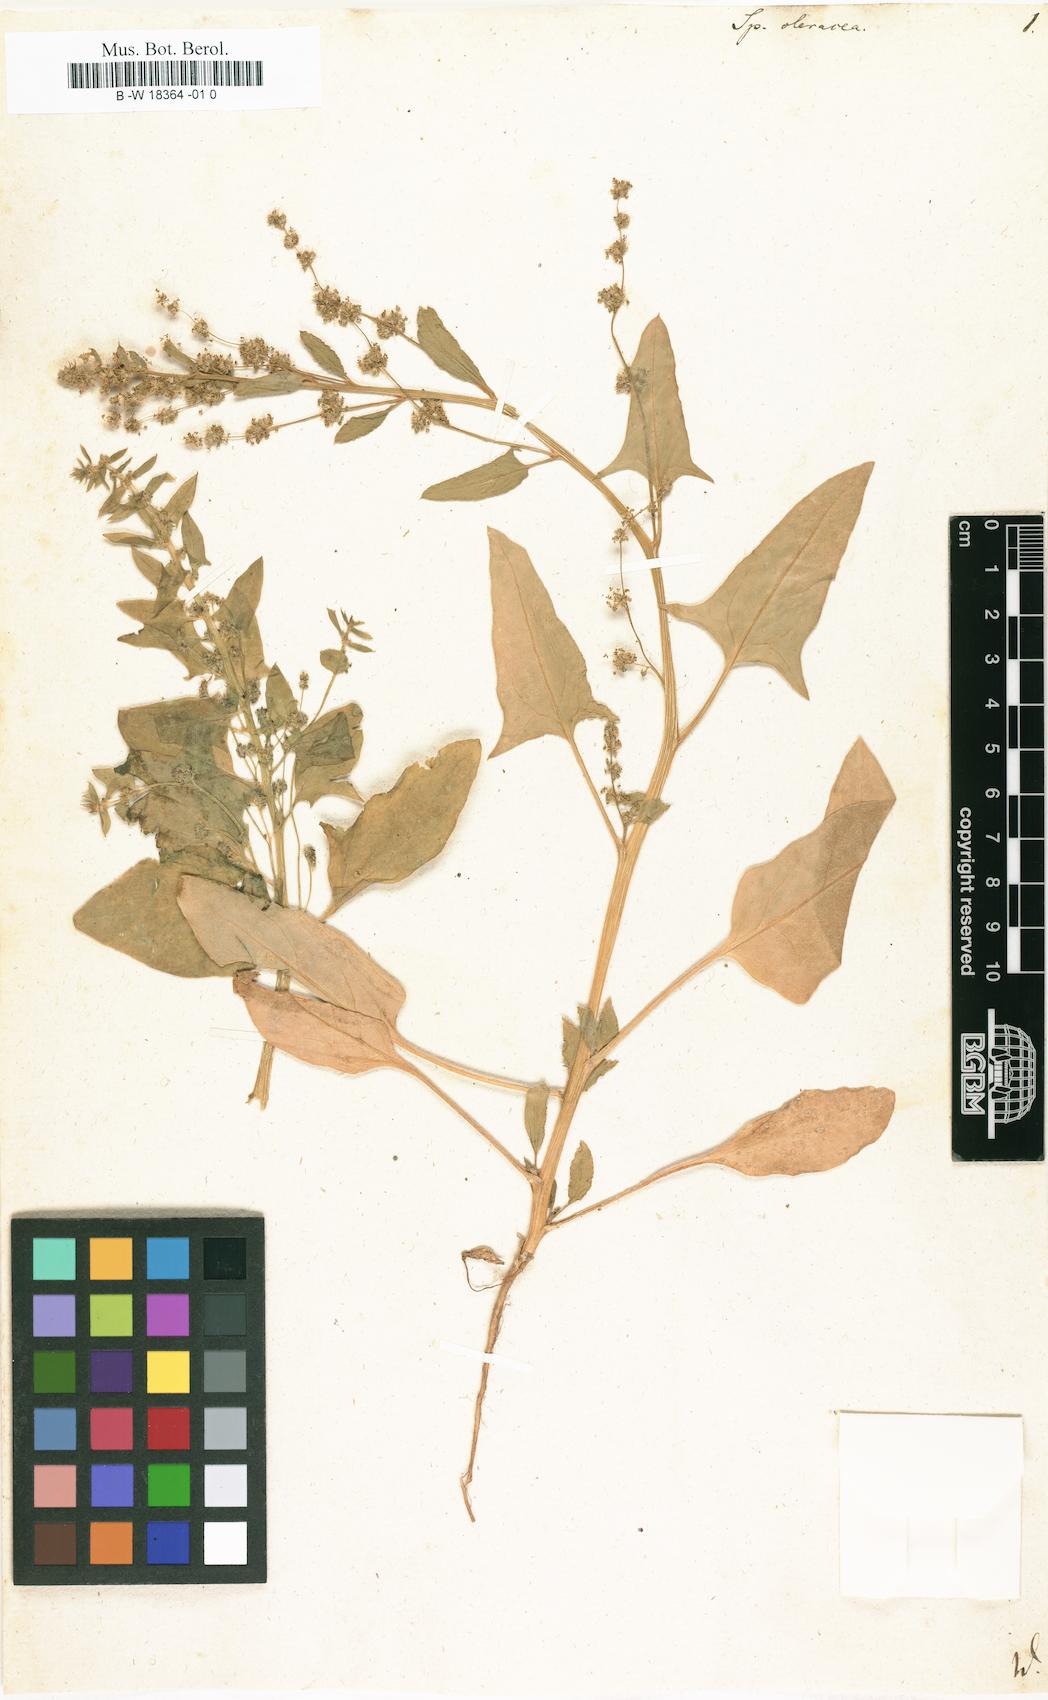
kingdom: Plantae
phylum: Tracheophyta
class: Magnoliopsida
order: Caryophyllales
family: Amaranthaceae
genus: Spinacia
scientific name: Spinacia oleracea
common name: Spinach
